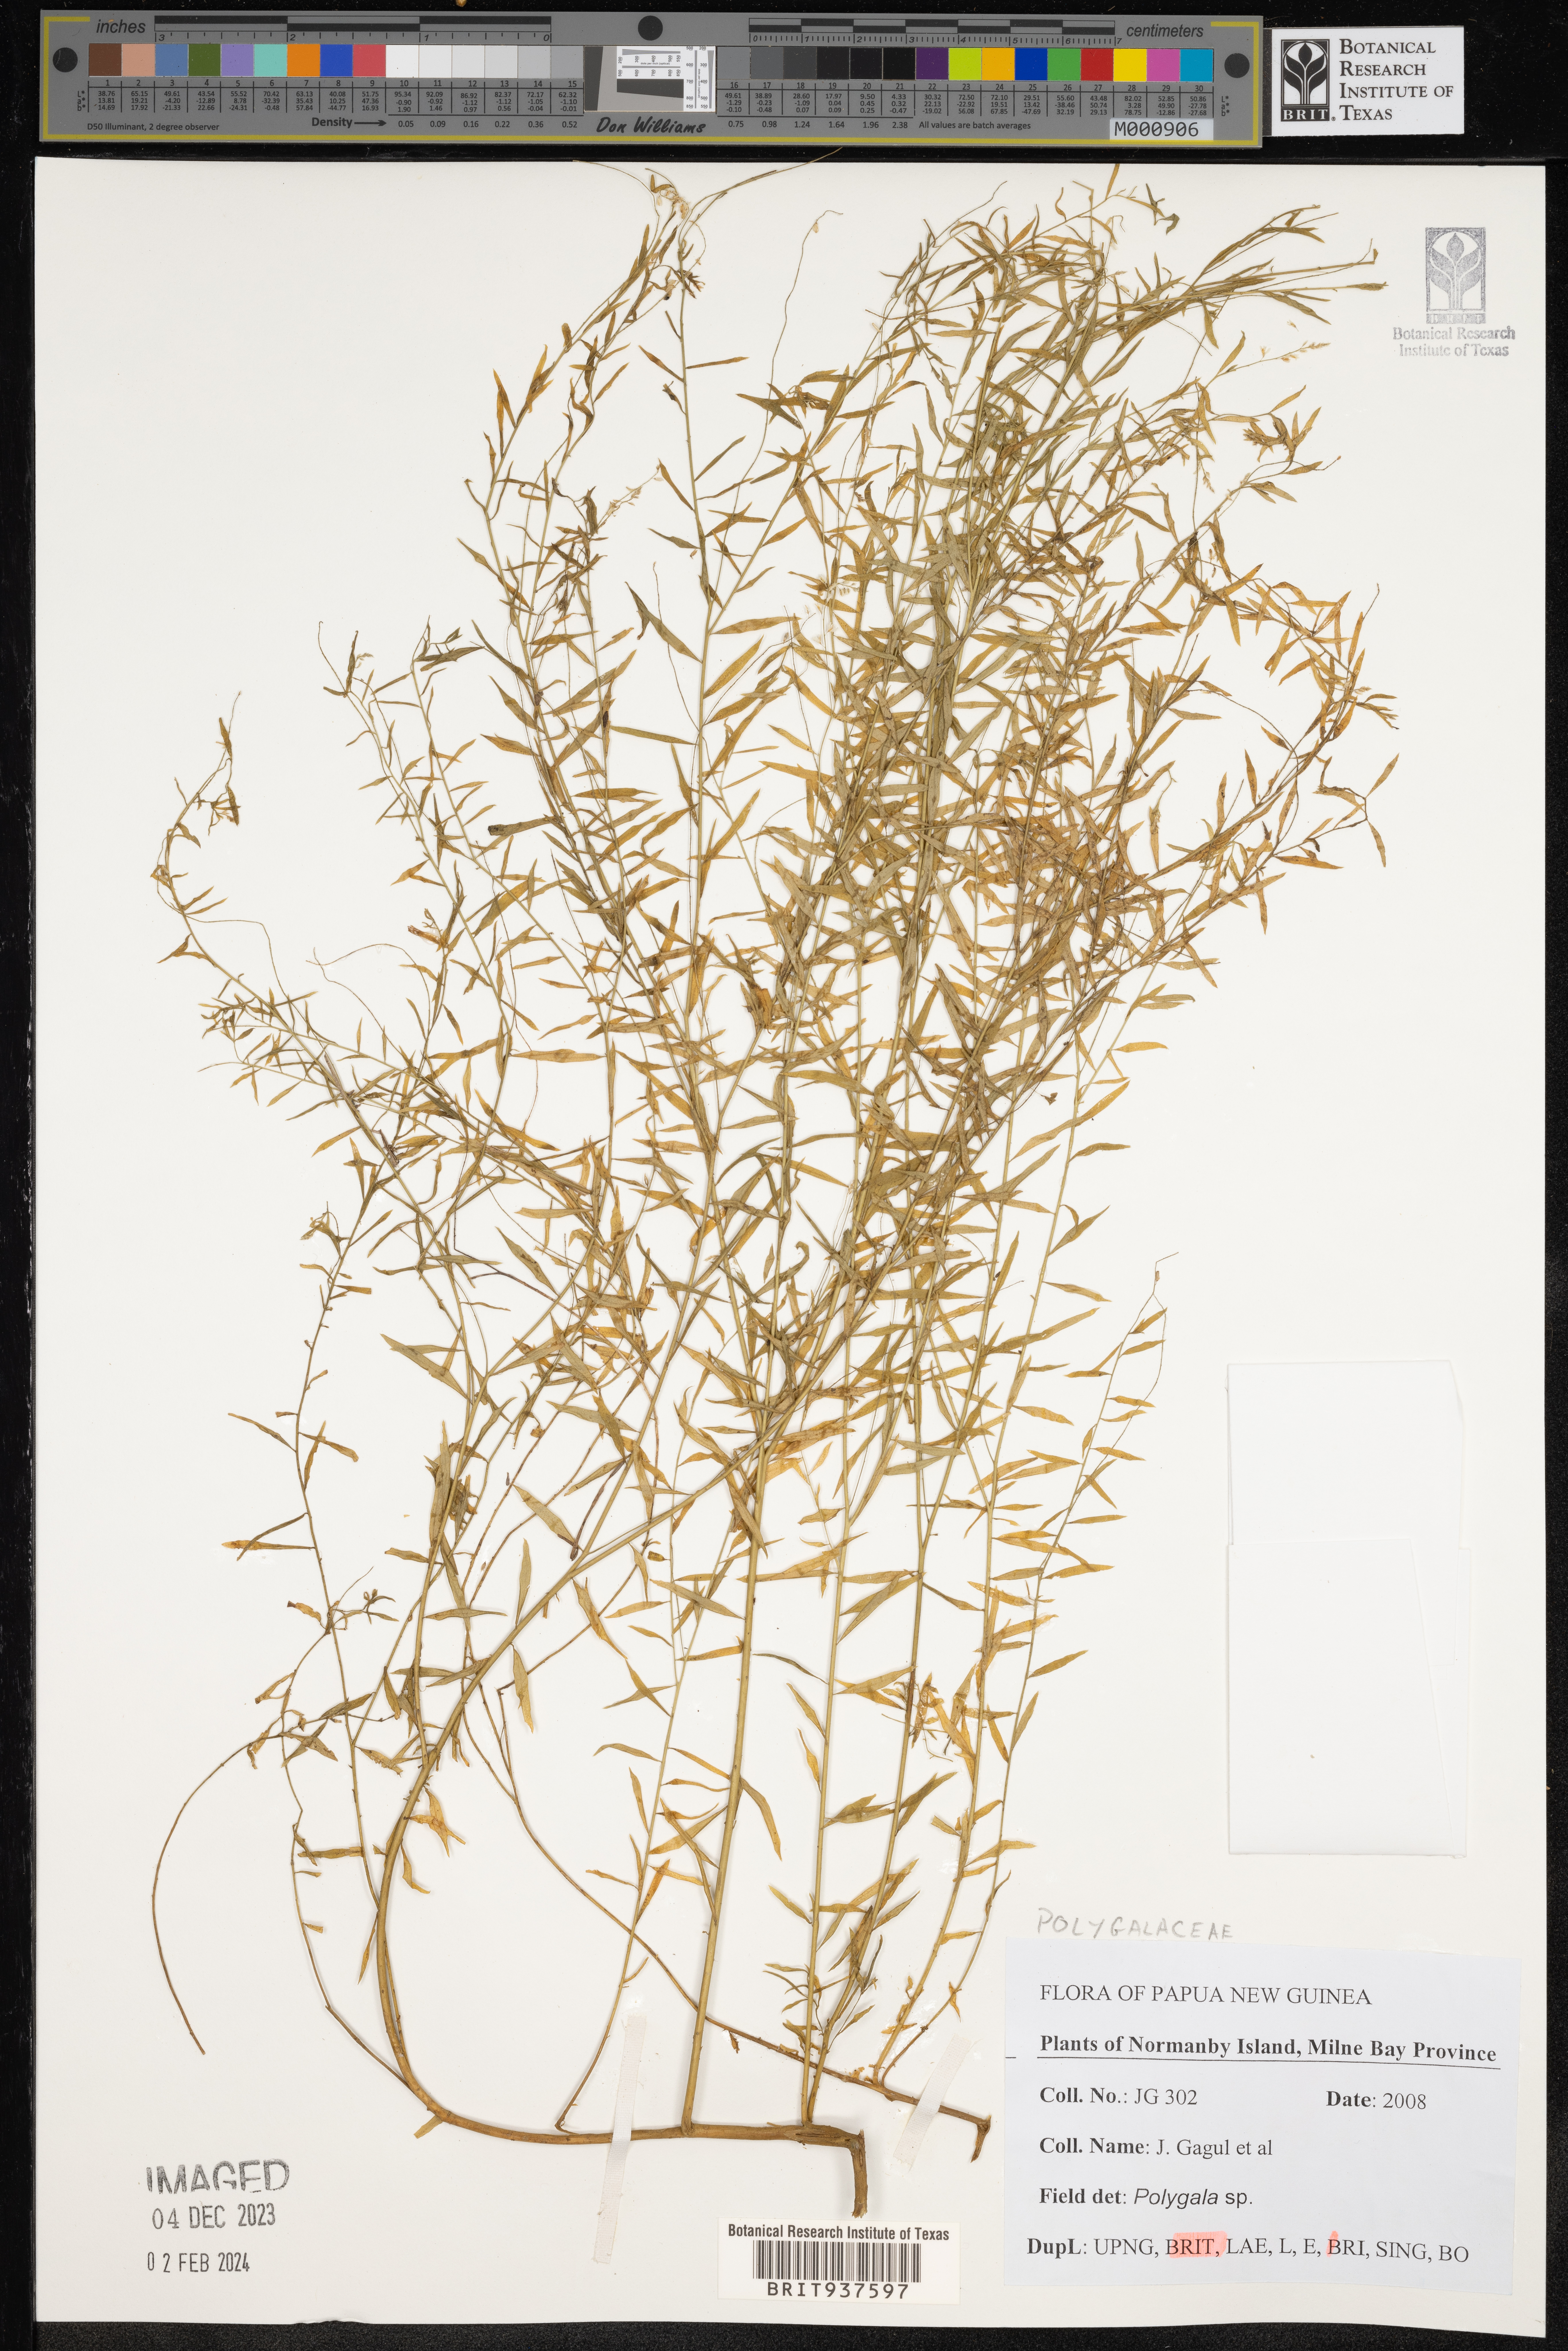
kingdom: Plantae
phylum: Tracheophyta
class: Magnoliopsida
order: Fabales
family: Polygalaceae
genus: Polygala
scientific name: Polygala
